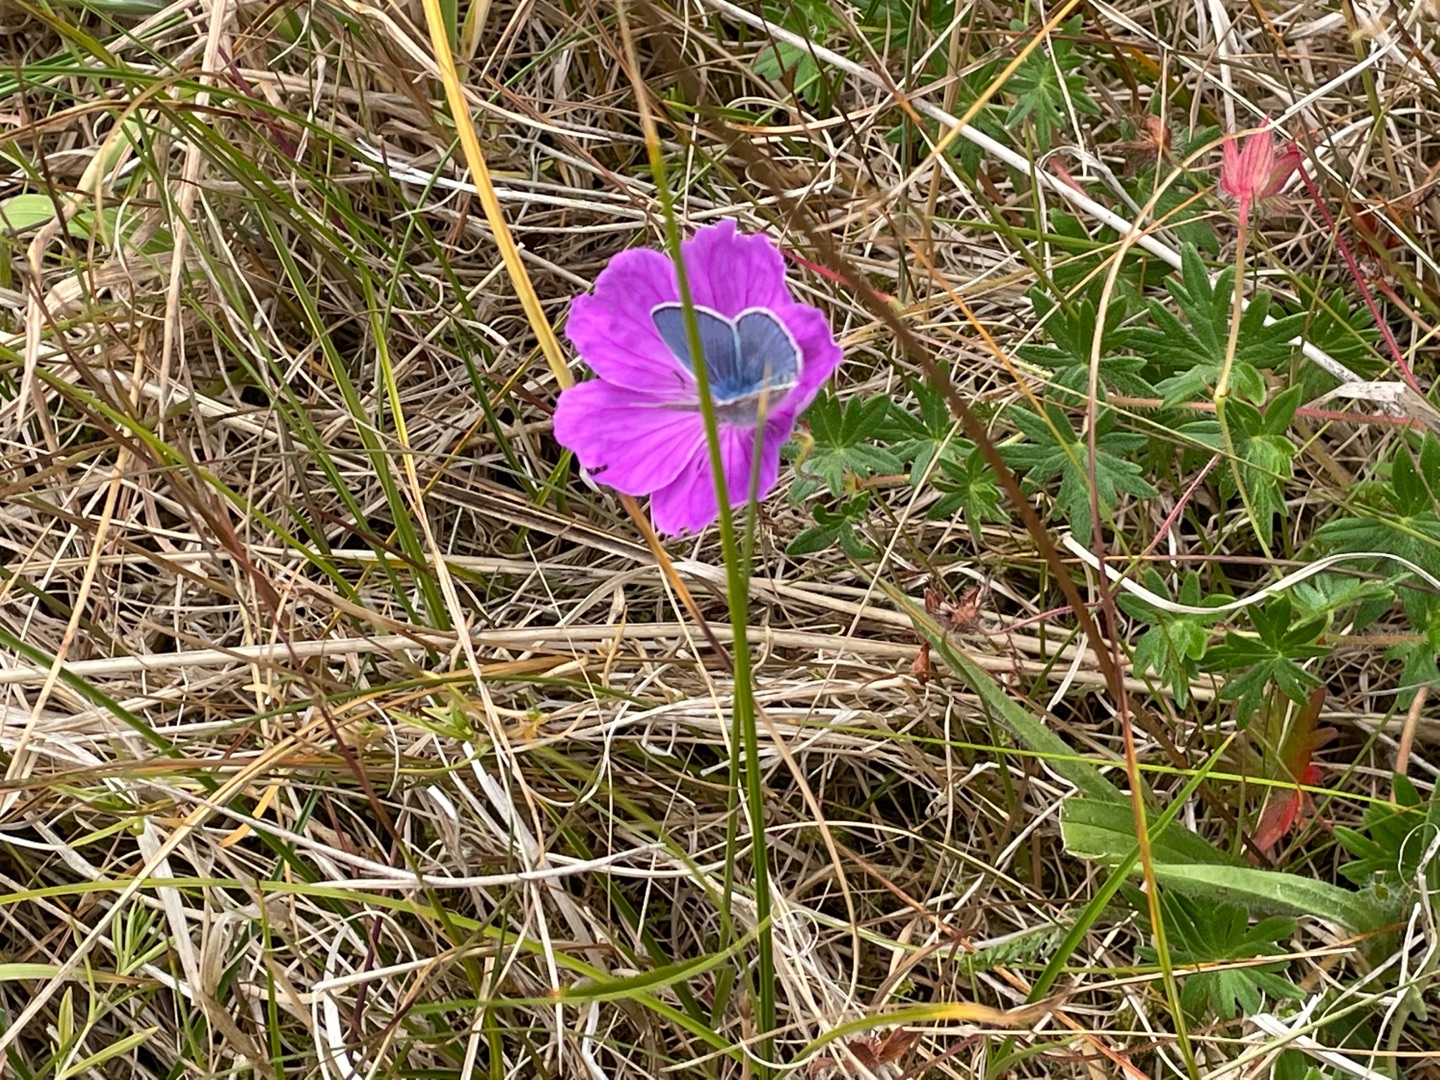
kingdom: Animalia
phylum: Arthropoda
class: Insecta
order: Lepidoptera
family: Lycaenidae
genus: Polyommatus
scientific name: Polyommatus icarus
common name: Almindelig blåfugl
